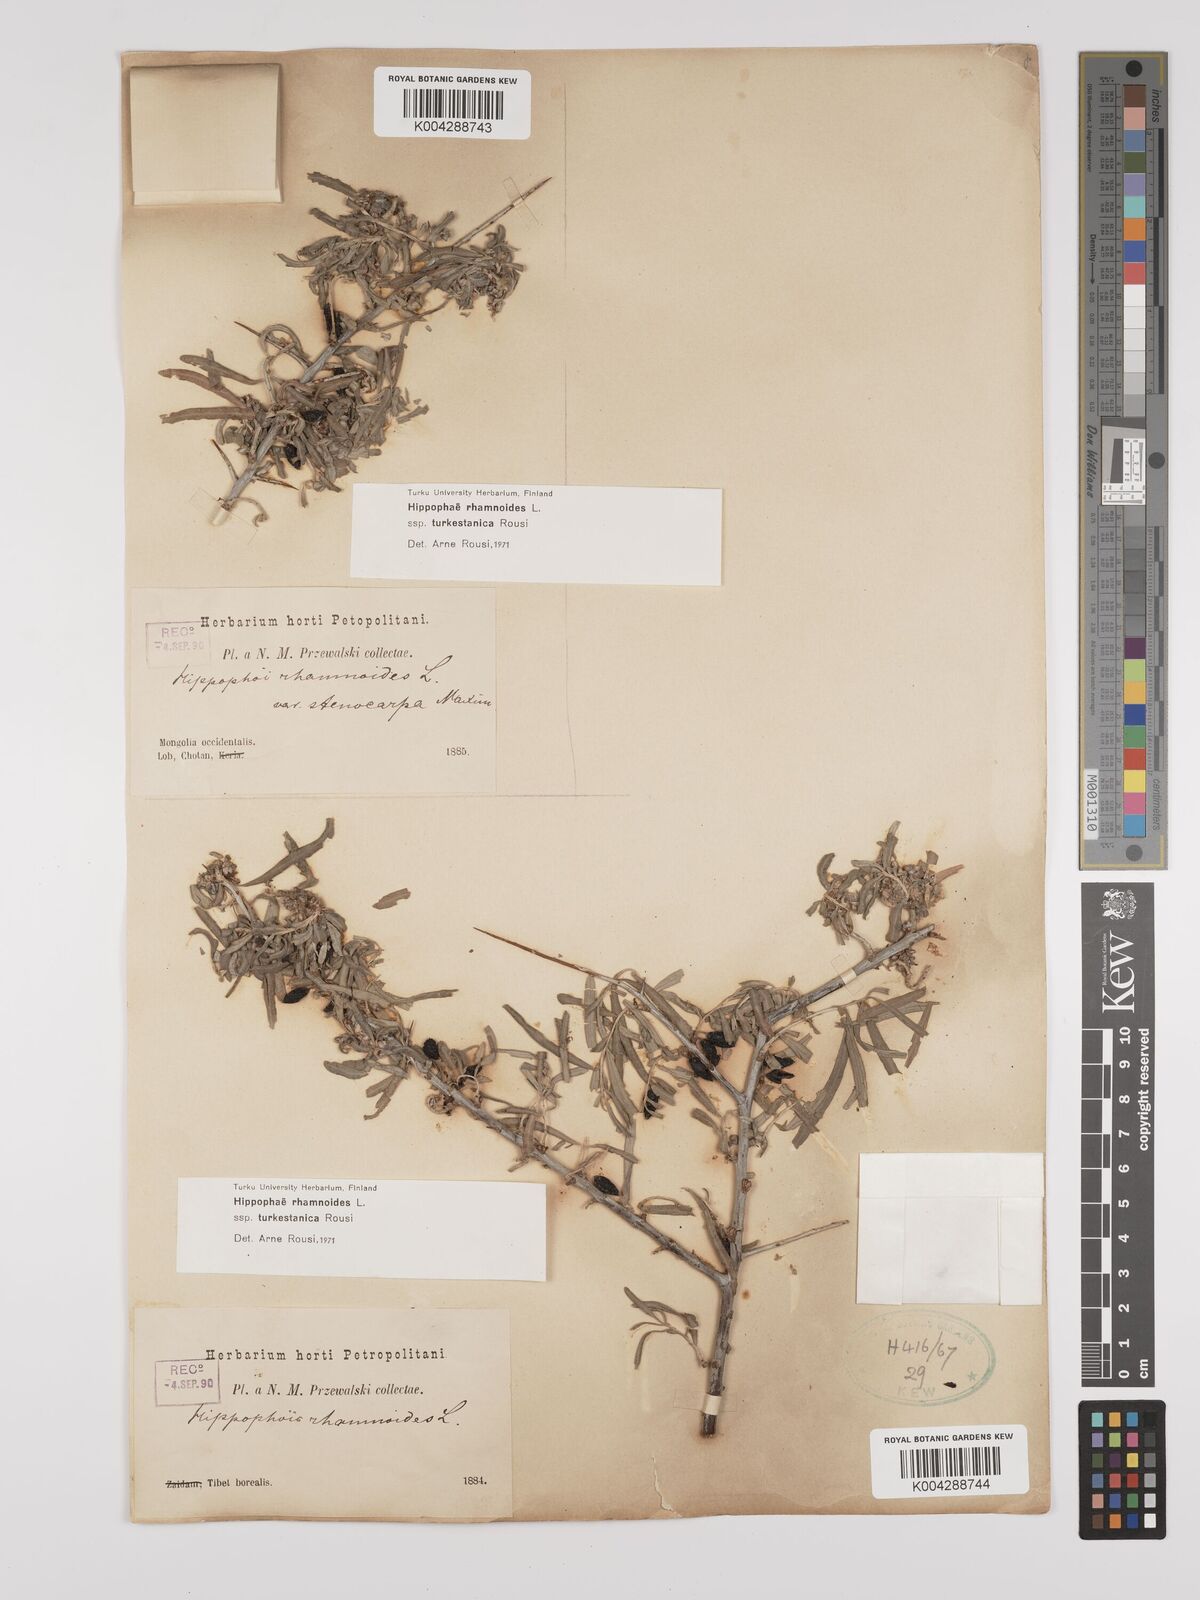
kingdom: Plantae
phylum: Tracheophyta
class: Magnoliopsida
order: Rosales
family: Elaeagnaceae
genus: Hippophae
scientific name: Hippophae rhamnoides
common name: Sea-buckthorn
